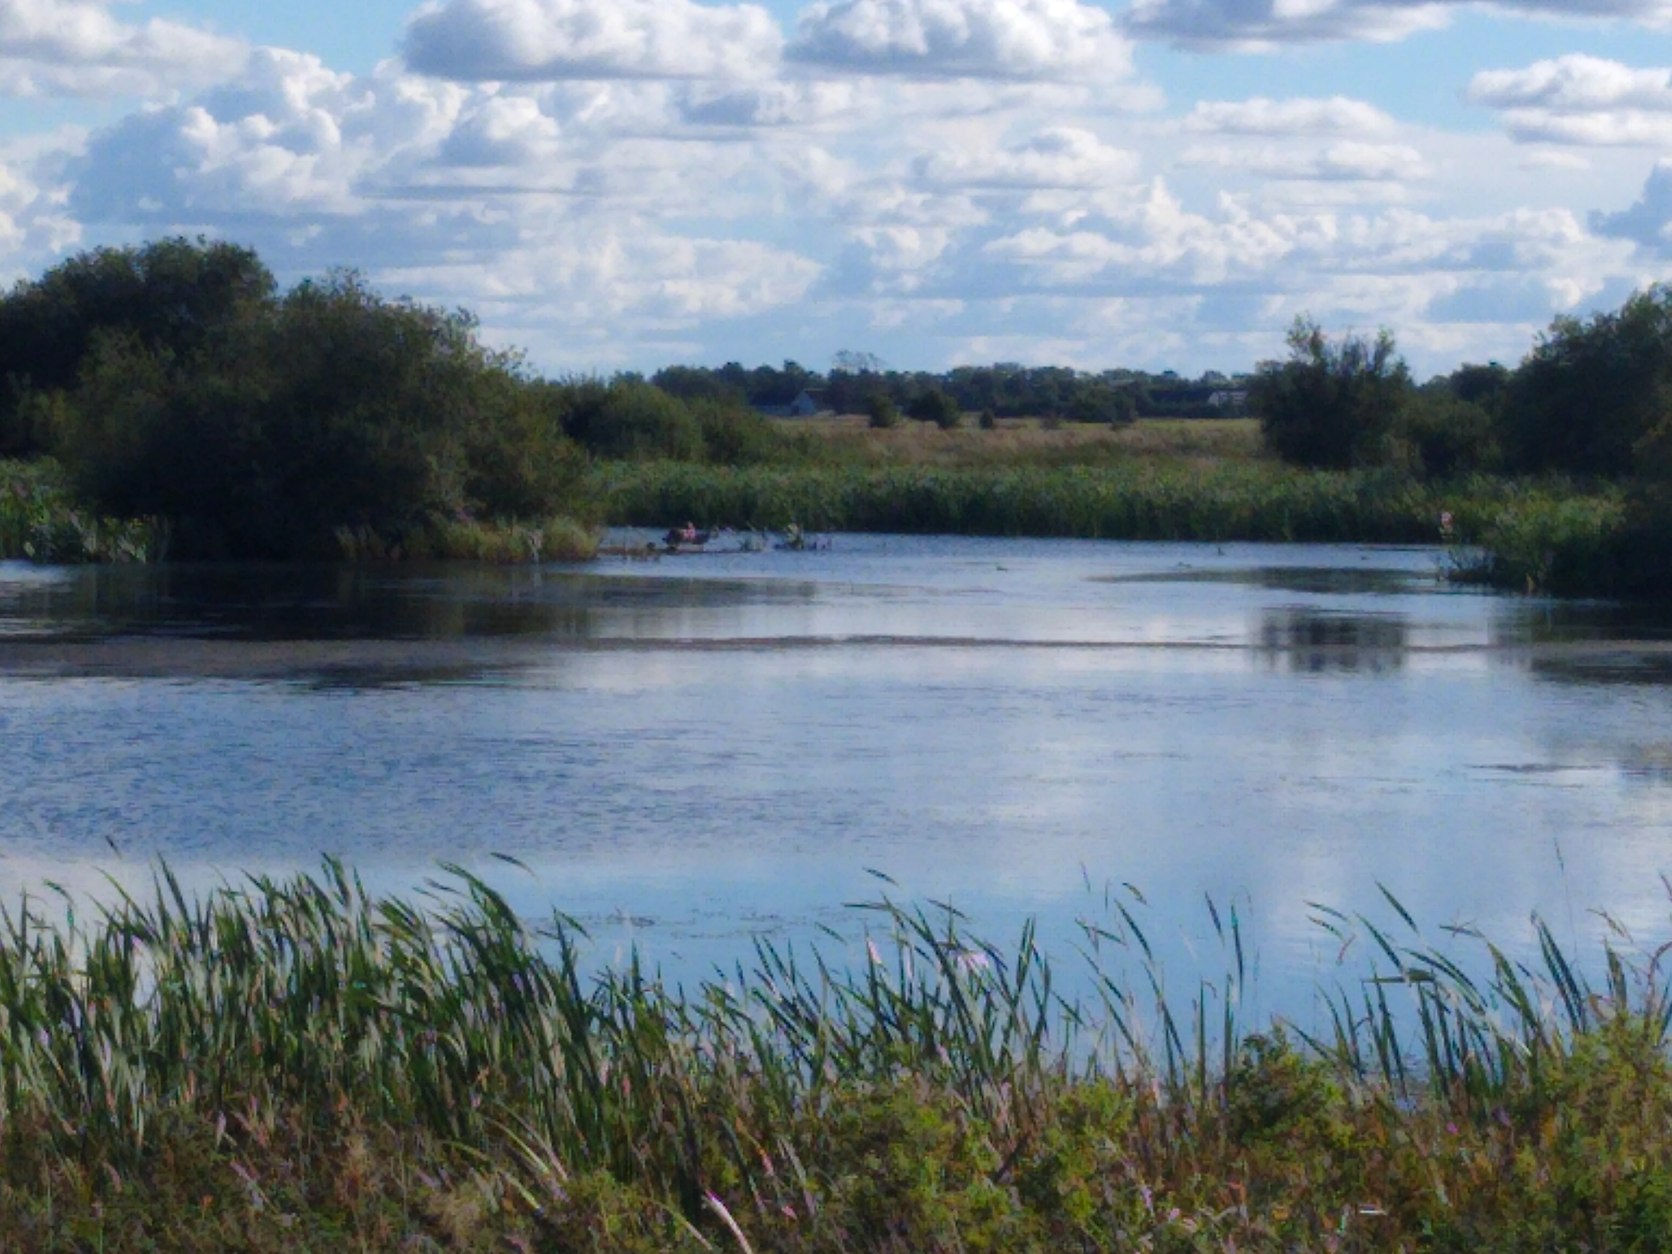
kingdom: Animalia
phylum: Chordata
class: Aves
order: Anseriformes
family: Anatidae
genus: Cygnus
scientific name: Cygnus olor
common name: Knopsvane
